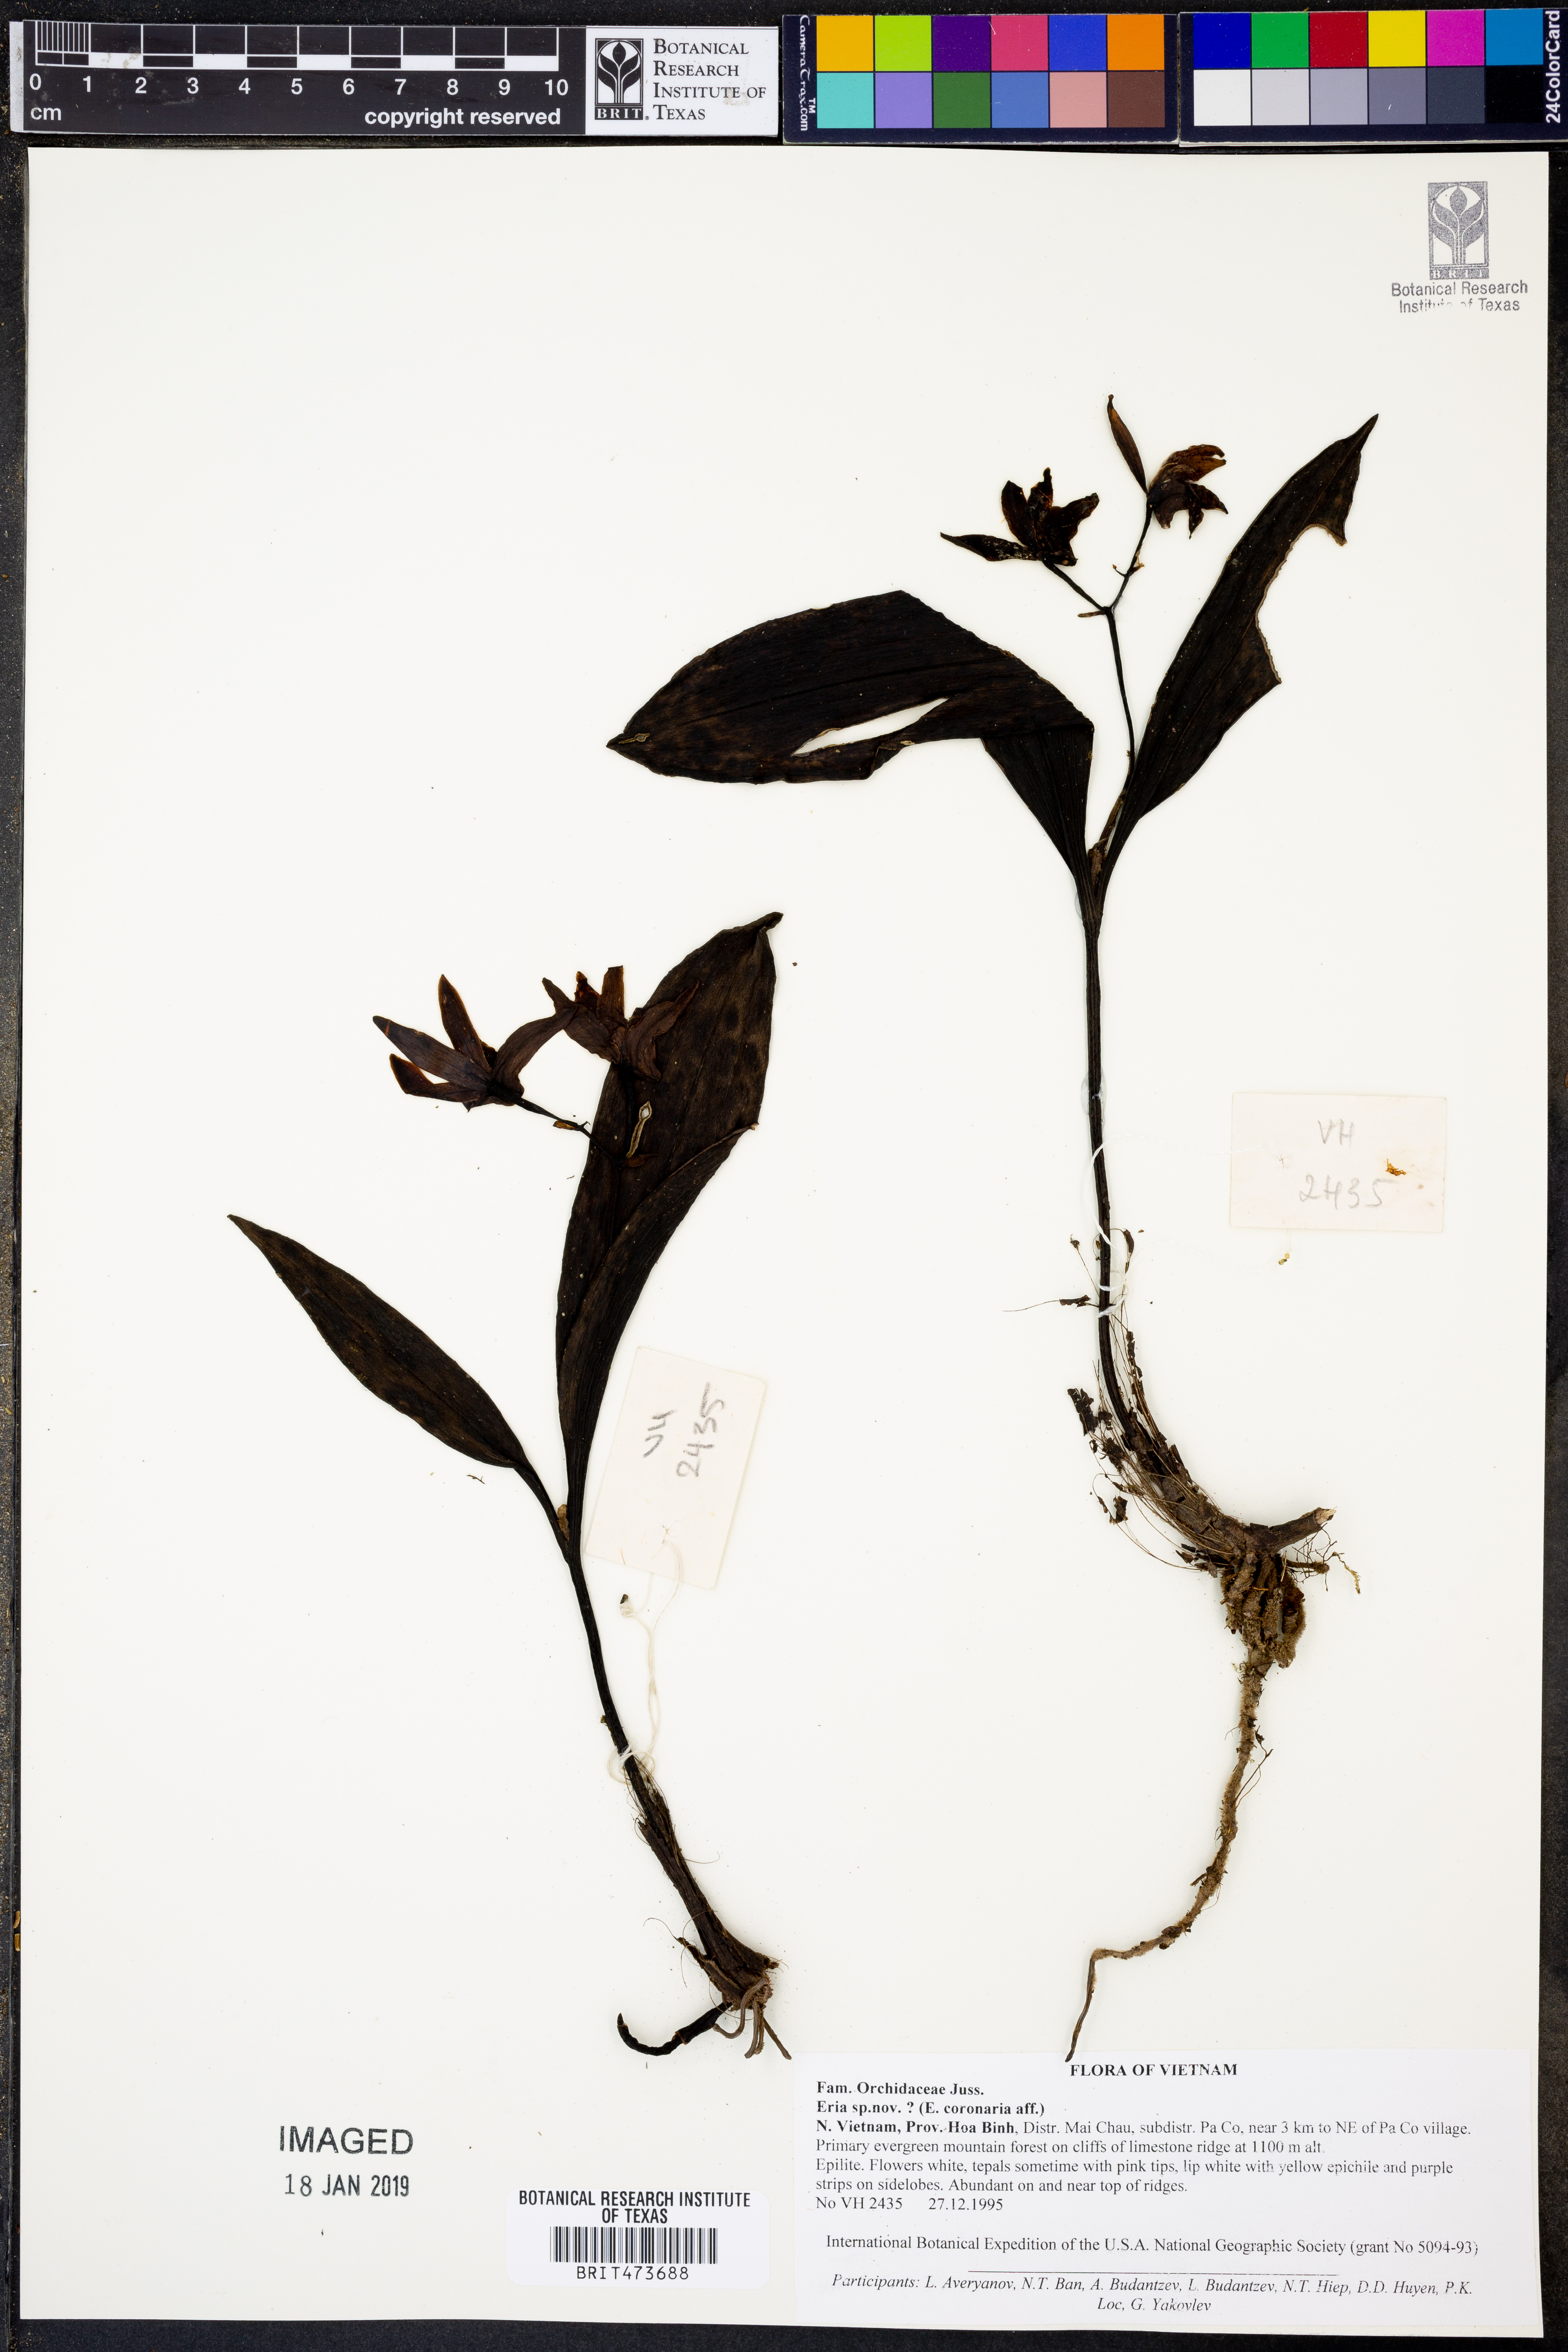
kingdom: Plantae
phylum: Tracheophyta
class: Liliopsida
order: Asparagales
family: Orchidaceae
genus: Eria
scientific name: Eria
